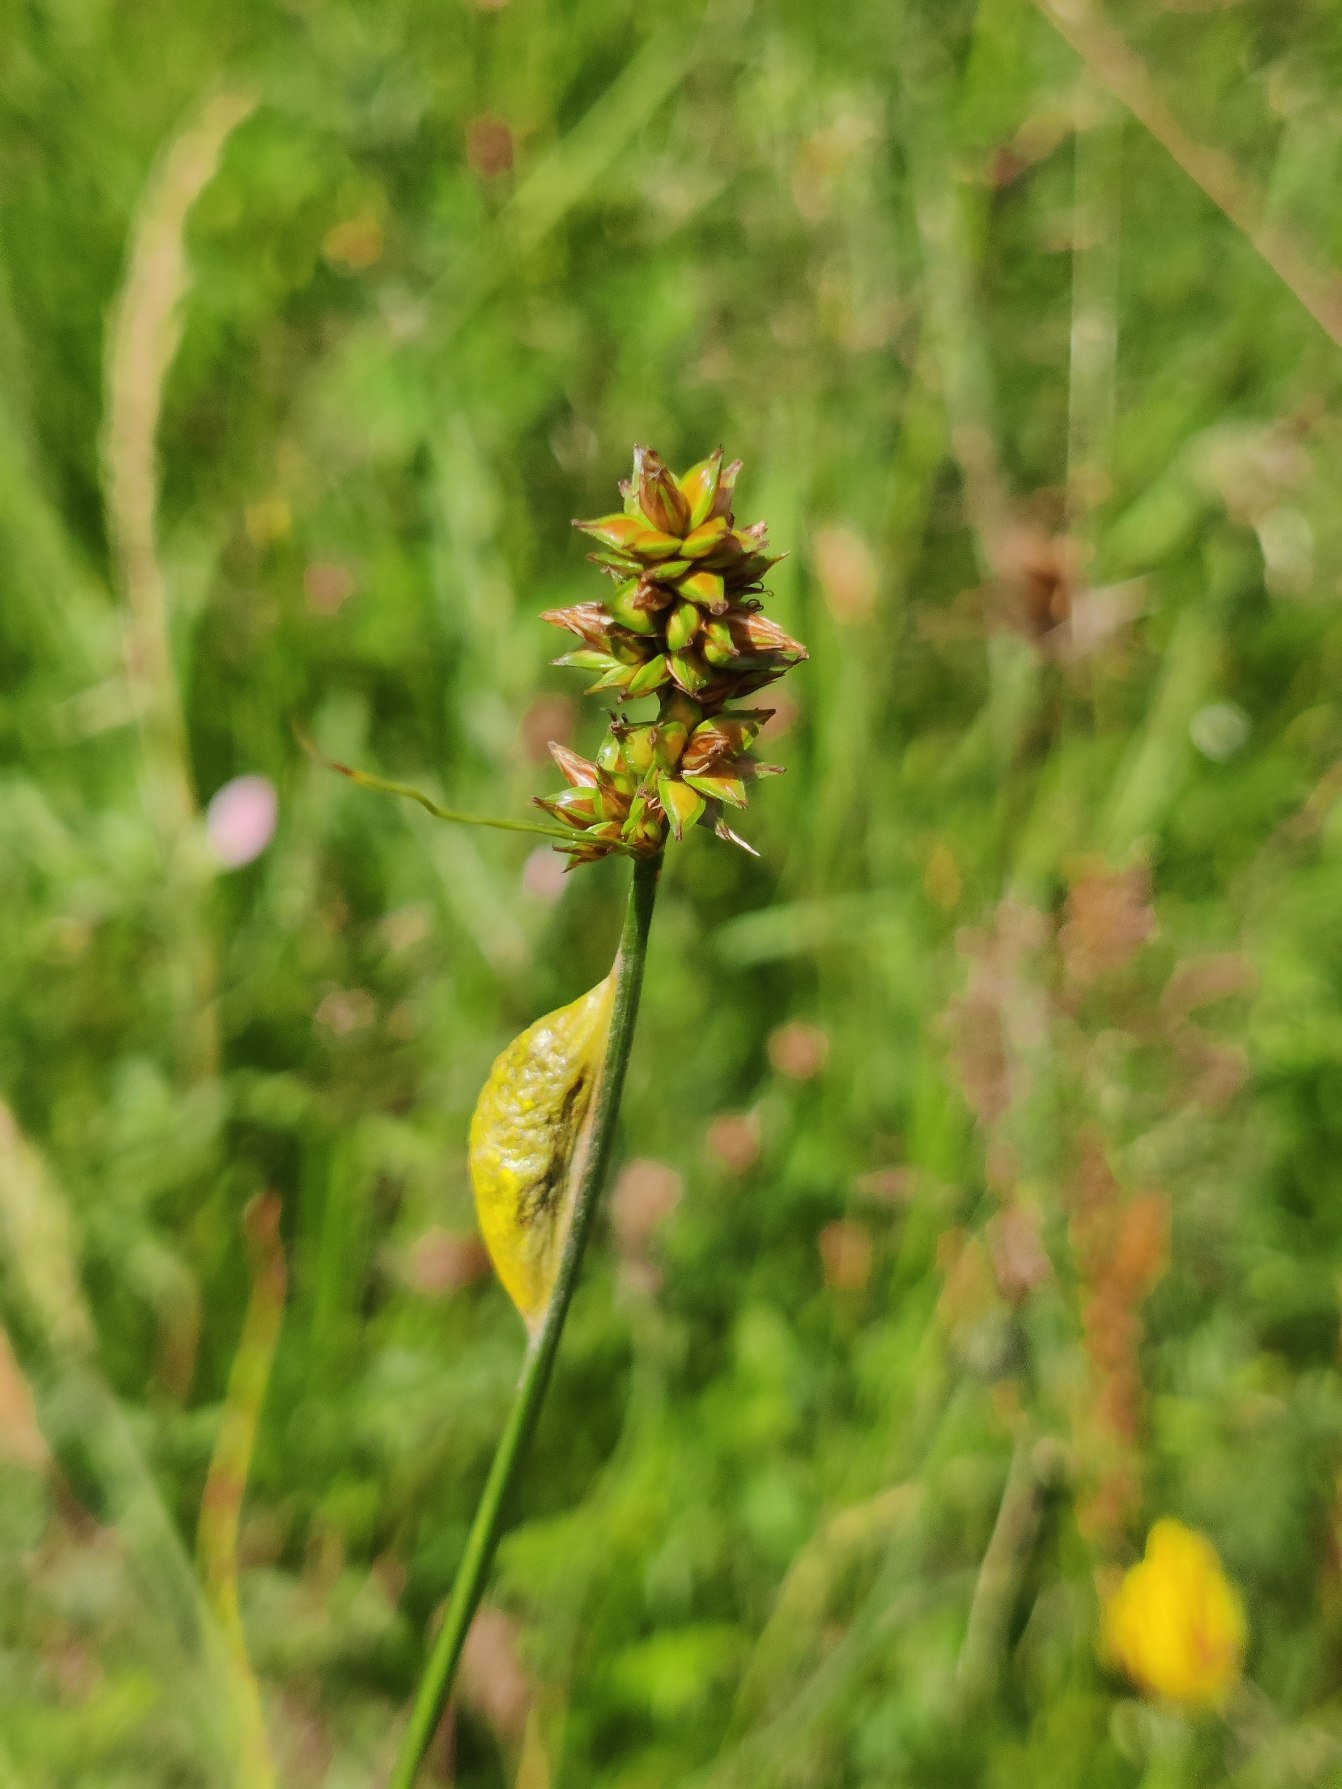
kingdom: Animalia
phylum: Arthropoda
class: Insecta
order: Lepidoptera
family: Zygaenidae
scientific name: Zygaenidae
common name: Køllesværmere
